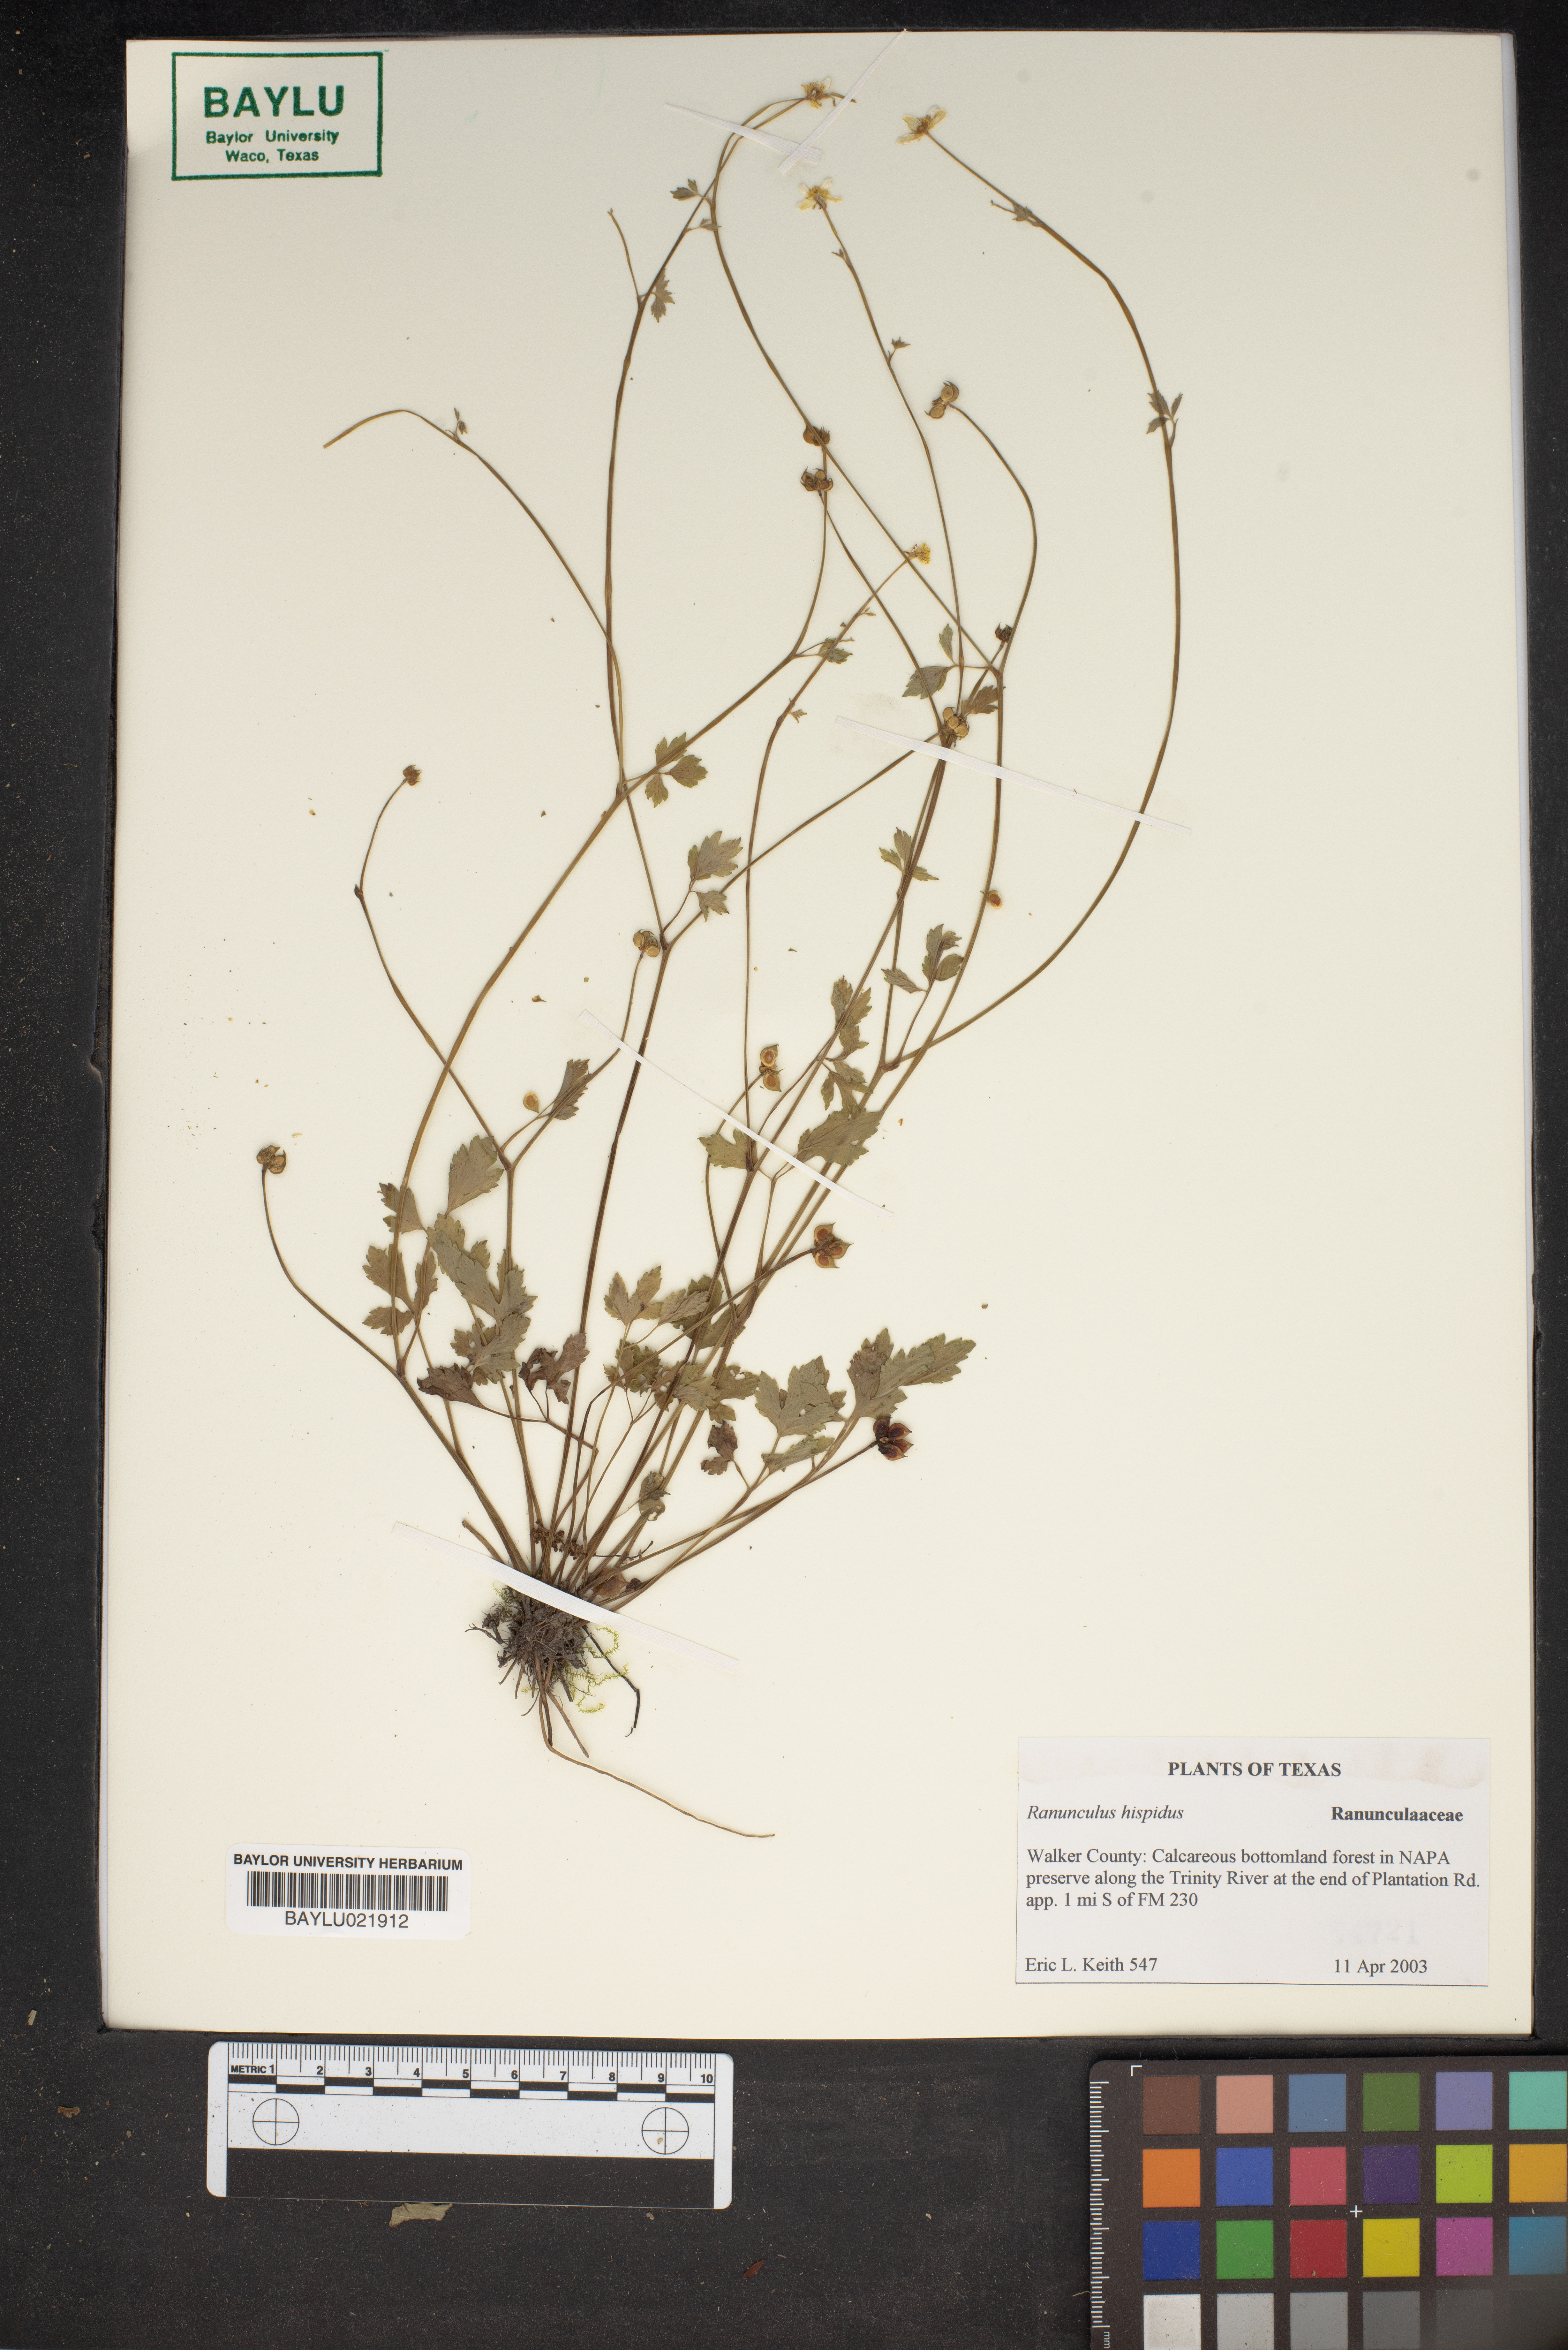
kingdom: Plantae
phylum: Tracheophyta
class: Magnoliopsida
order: Ranunculales
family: Ranunculaceae
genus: Ranunculus
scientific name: Ranunculus hispidus
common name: Bristly buttercup
